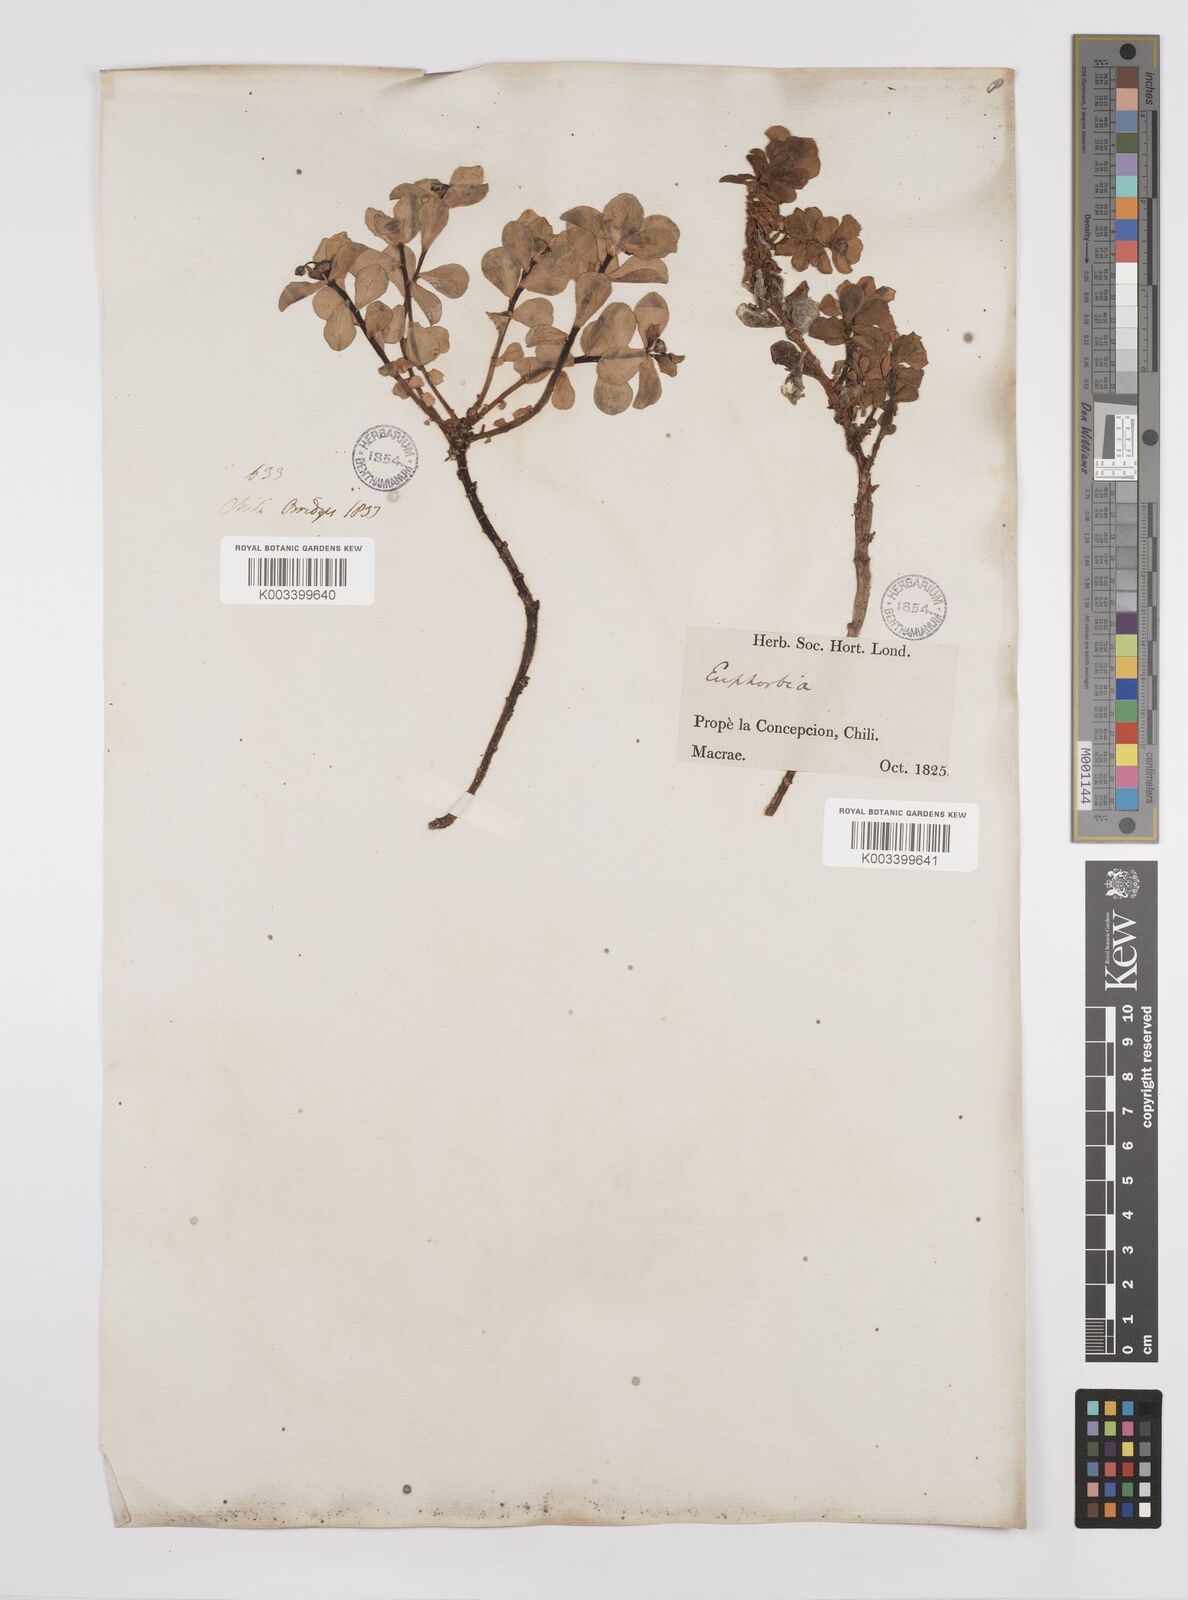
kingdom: Plantae
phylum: Tracheophyta
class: Magnoliopsida
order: Malpighiales
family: Euphorbiaceae
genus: Euphorbia
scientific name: Euphorbia portulacoides
